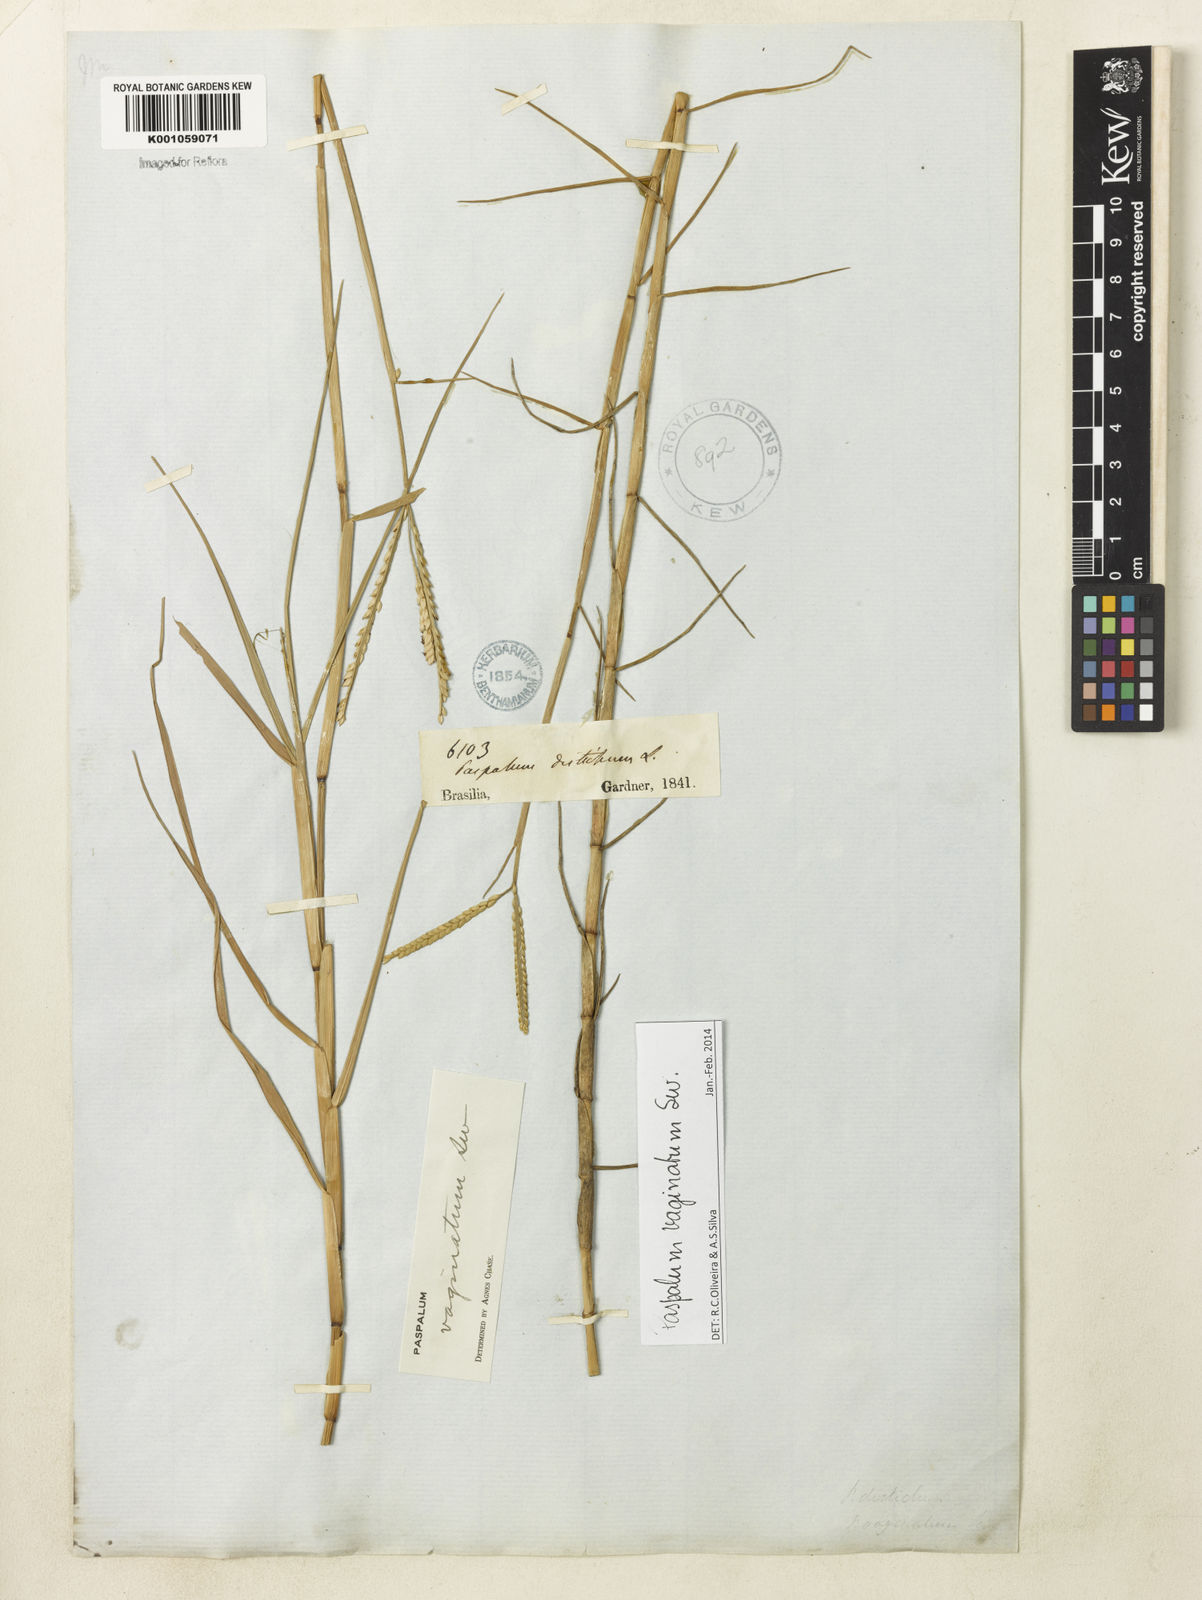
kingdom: Plantae
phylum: Tracheophyta
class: Liliopsida
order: Poales
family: Poaceae
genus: Paspalum
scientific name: Paspalum vaginatum
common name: Seashore paspalum
